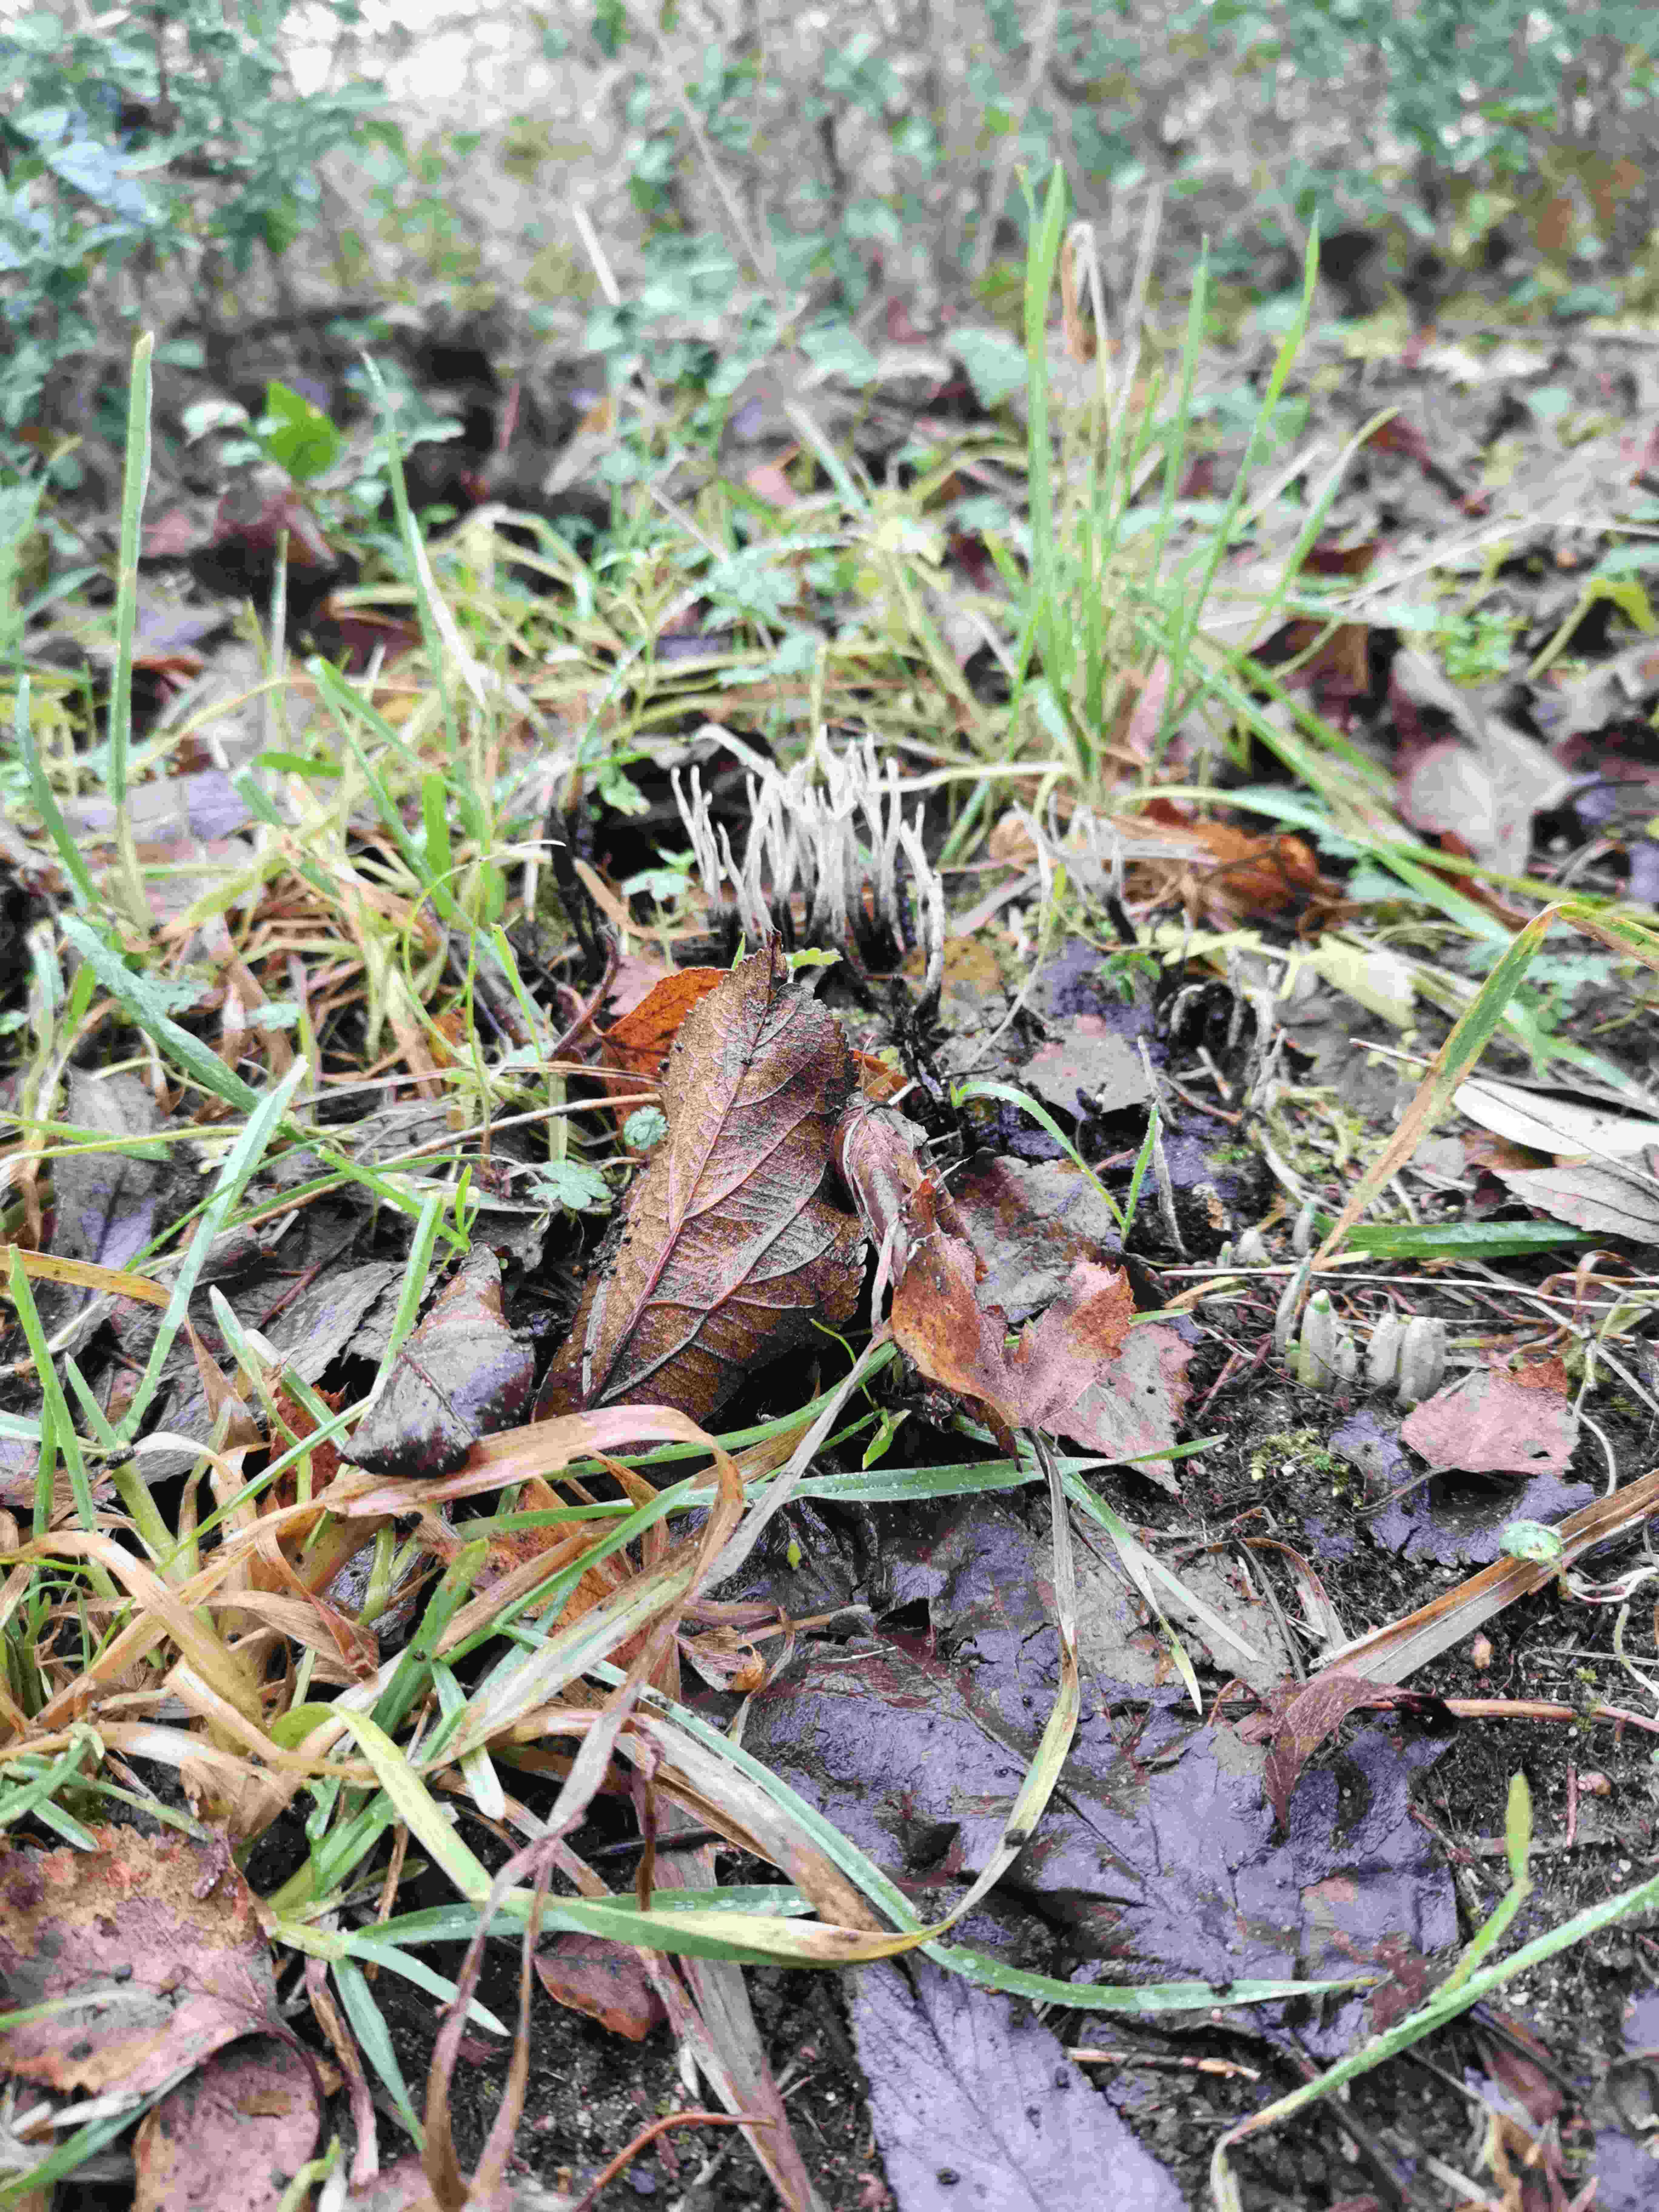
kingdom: Fungi
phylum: Ascomycota
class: Sordariomycetes
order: Xylariales
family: Xylariaceae
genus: Xylaria
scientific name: Xylaria hypoxylon
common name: grenet stødsvamp
